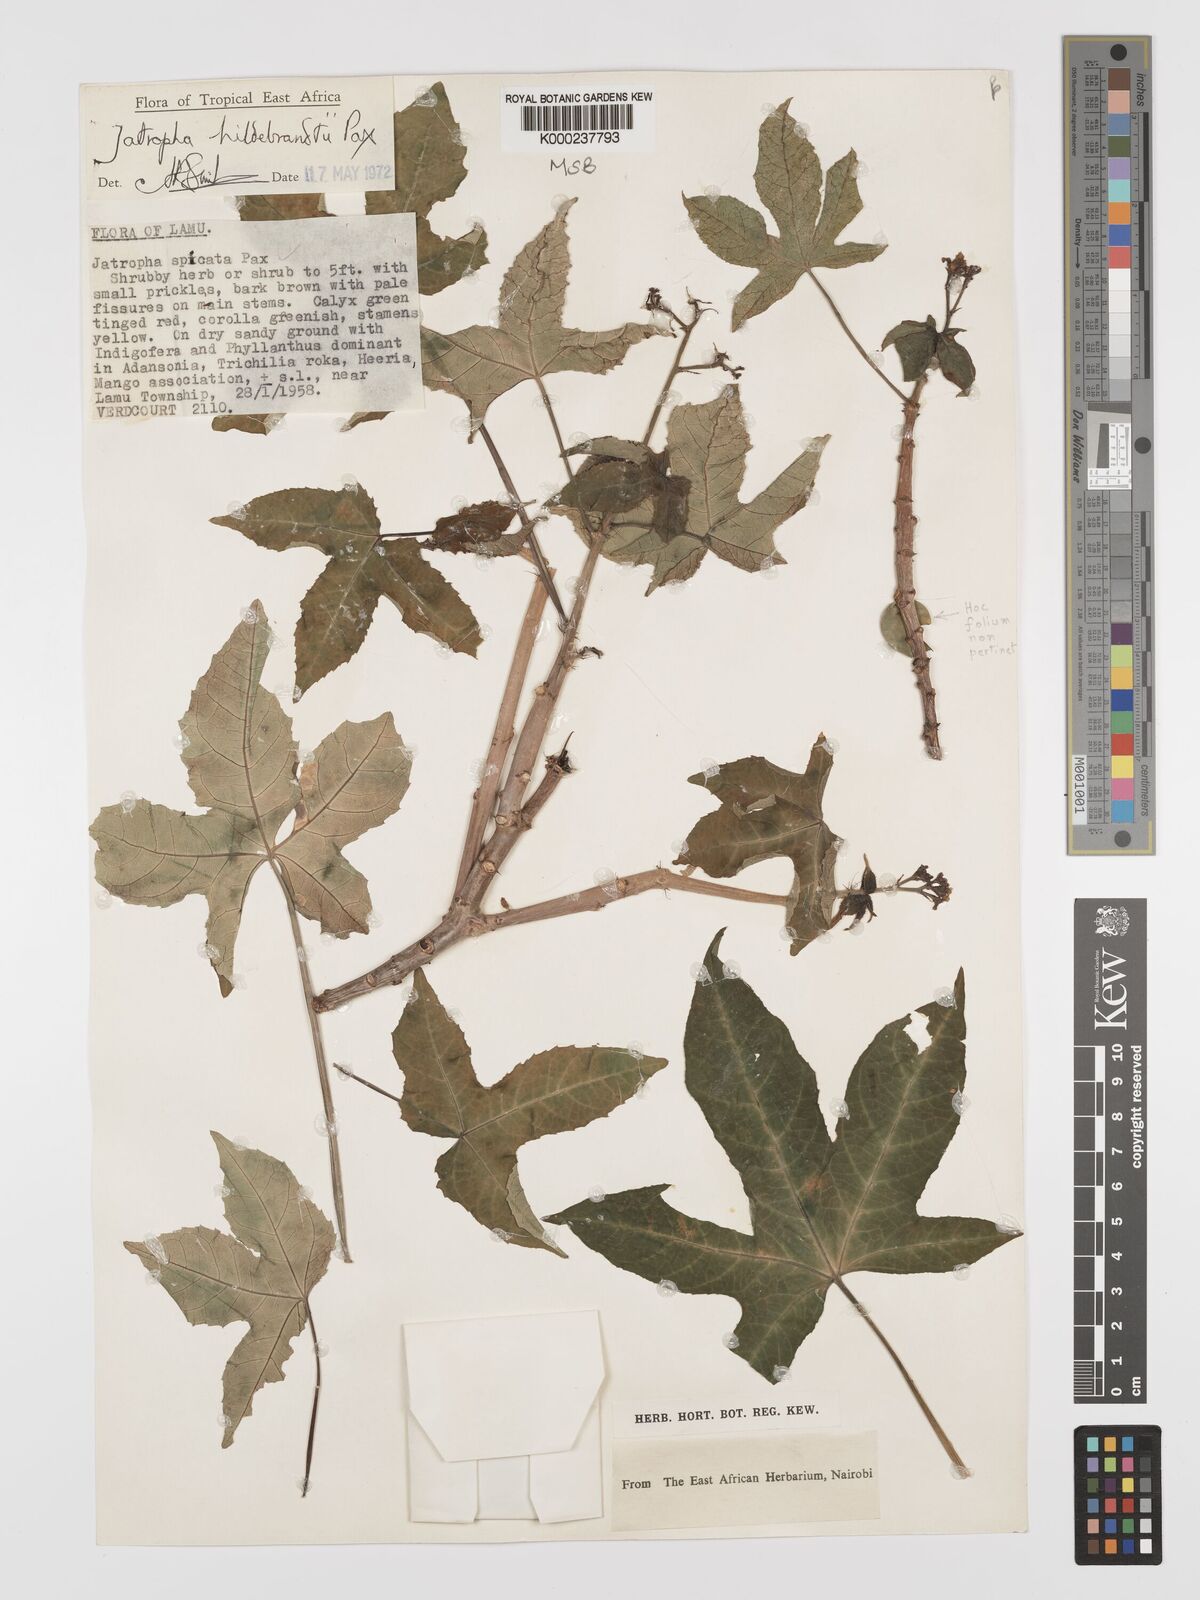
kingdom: Plantae
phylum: Tracheophyta
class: Magnoliopsida
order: Malpighiales
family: Euphorbiaceae
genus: Jatropha
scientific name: Jatropha hildebrandtii
